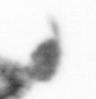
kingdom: Animalia
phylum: Arthropoda
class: Copepoda
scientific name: Copepoda
